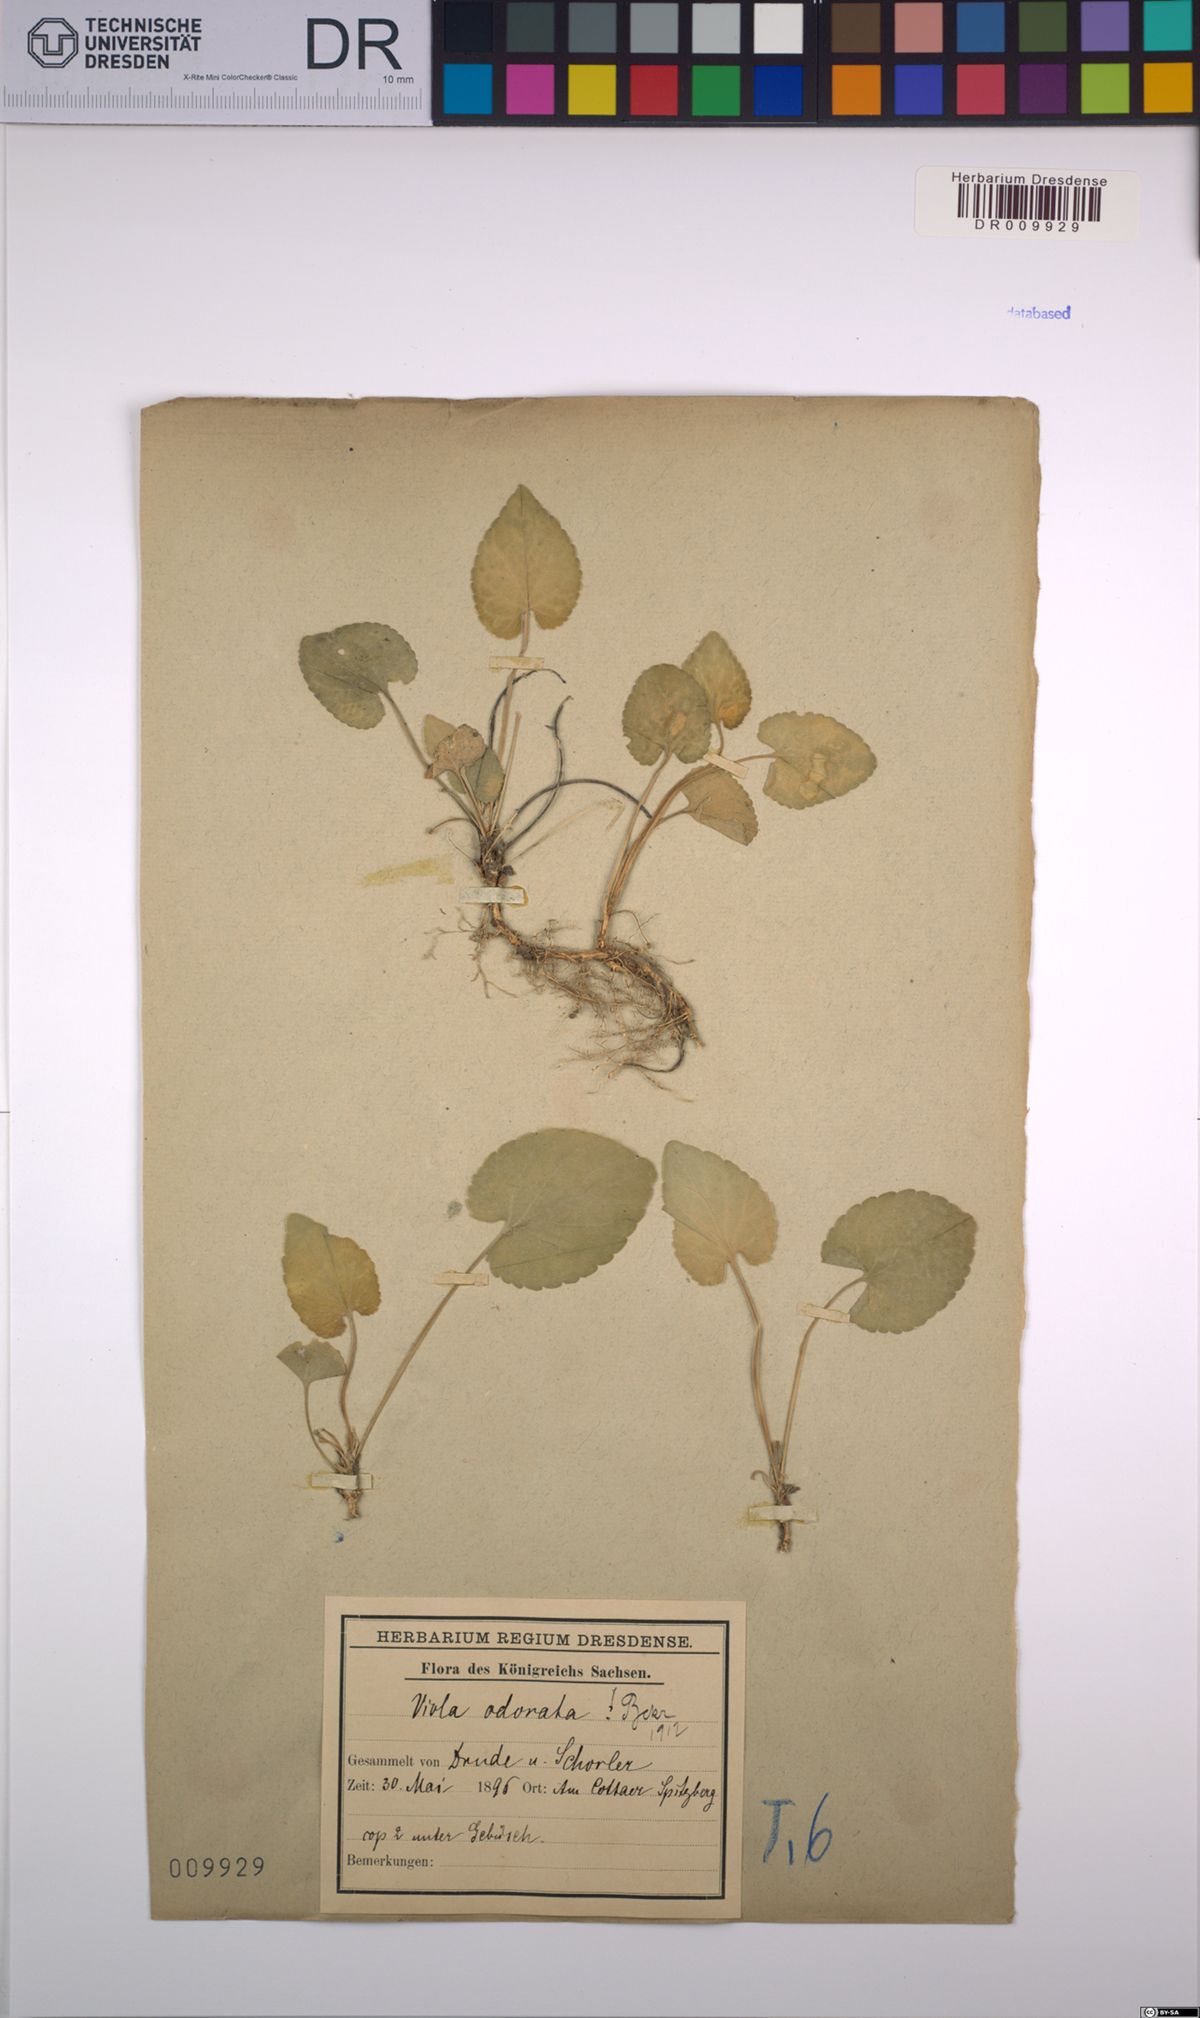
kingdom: Plantae
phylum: Tracheophyta
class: Magnoliopsida
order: Malpighiales
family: Violaceae
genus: Viola
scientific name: Viola odorata
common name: Sweet violet
